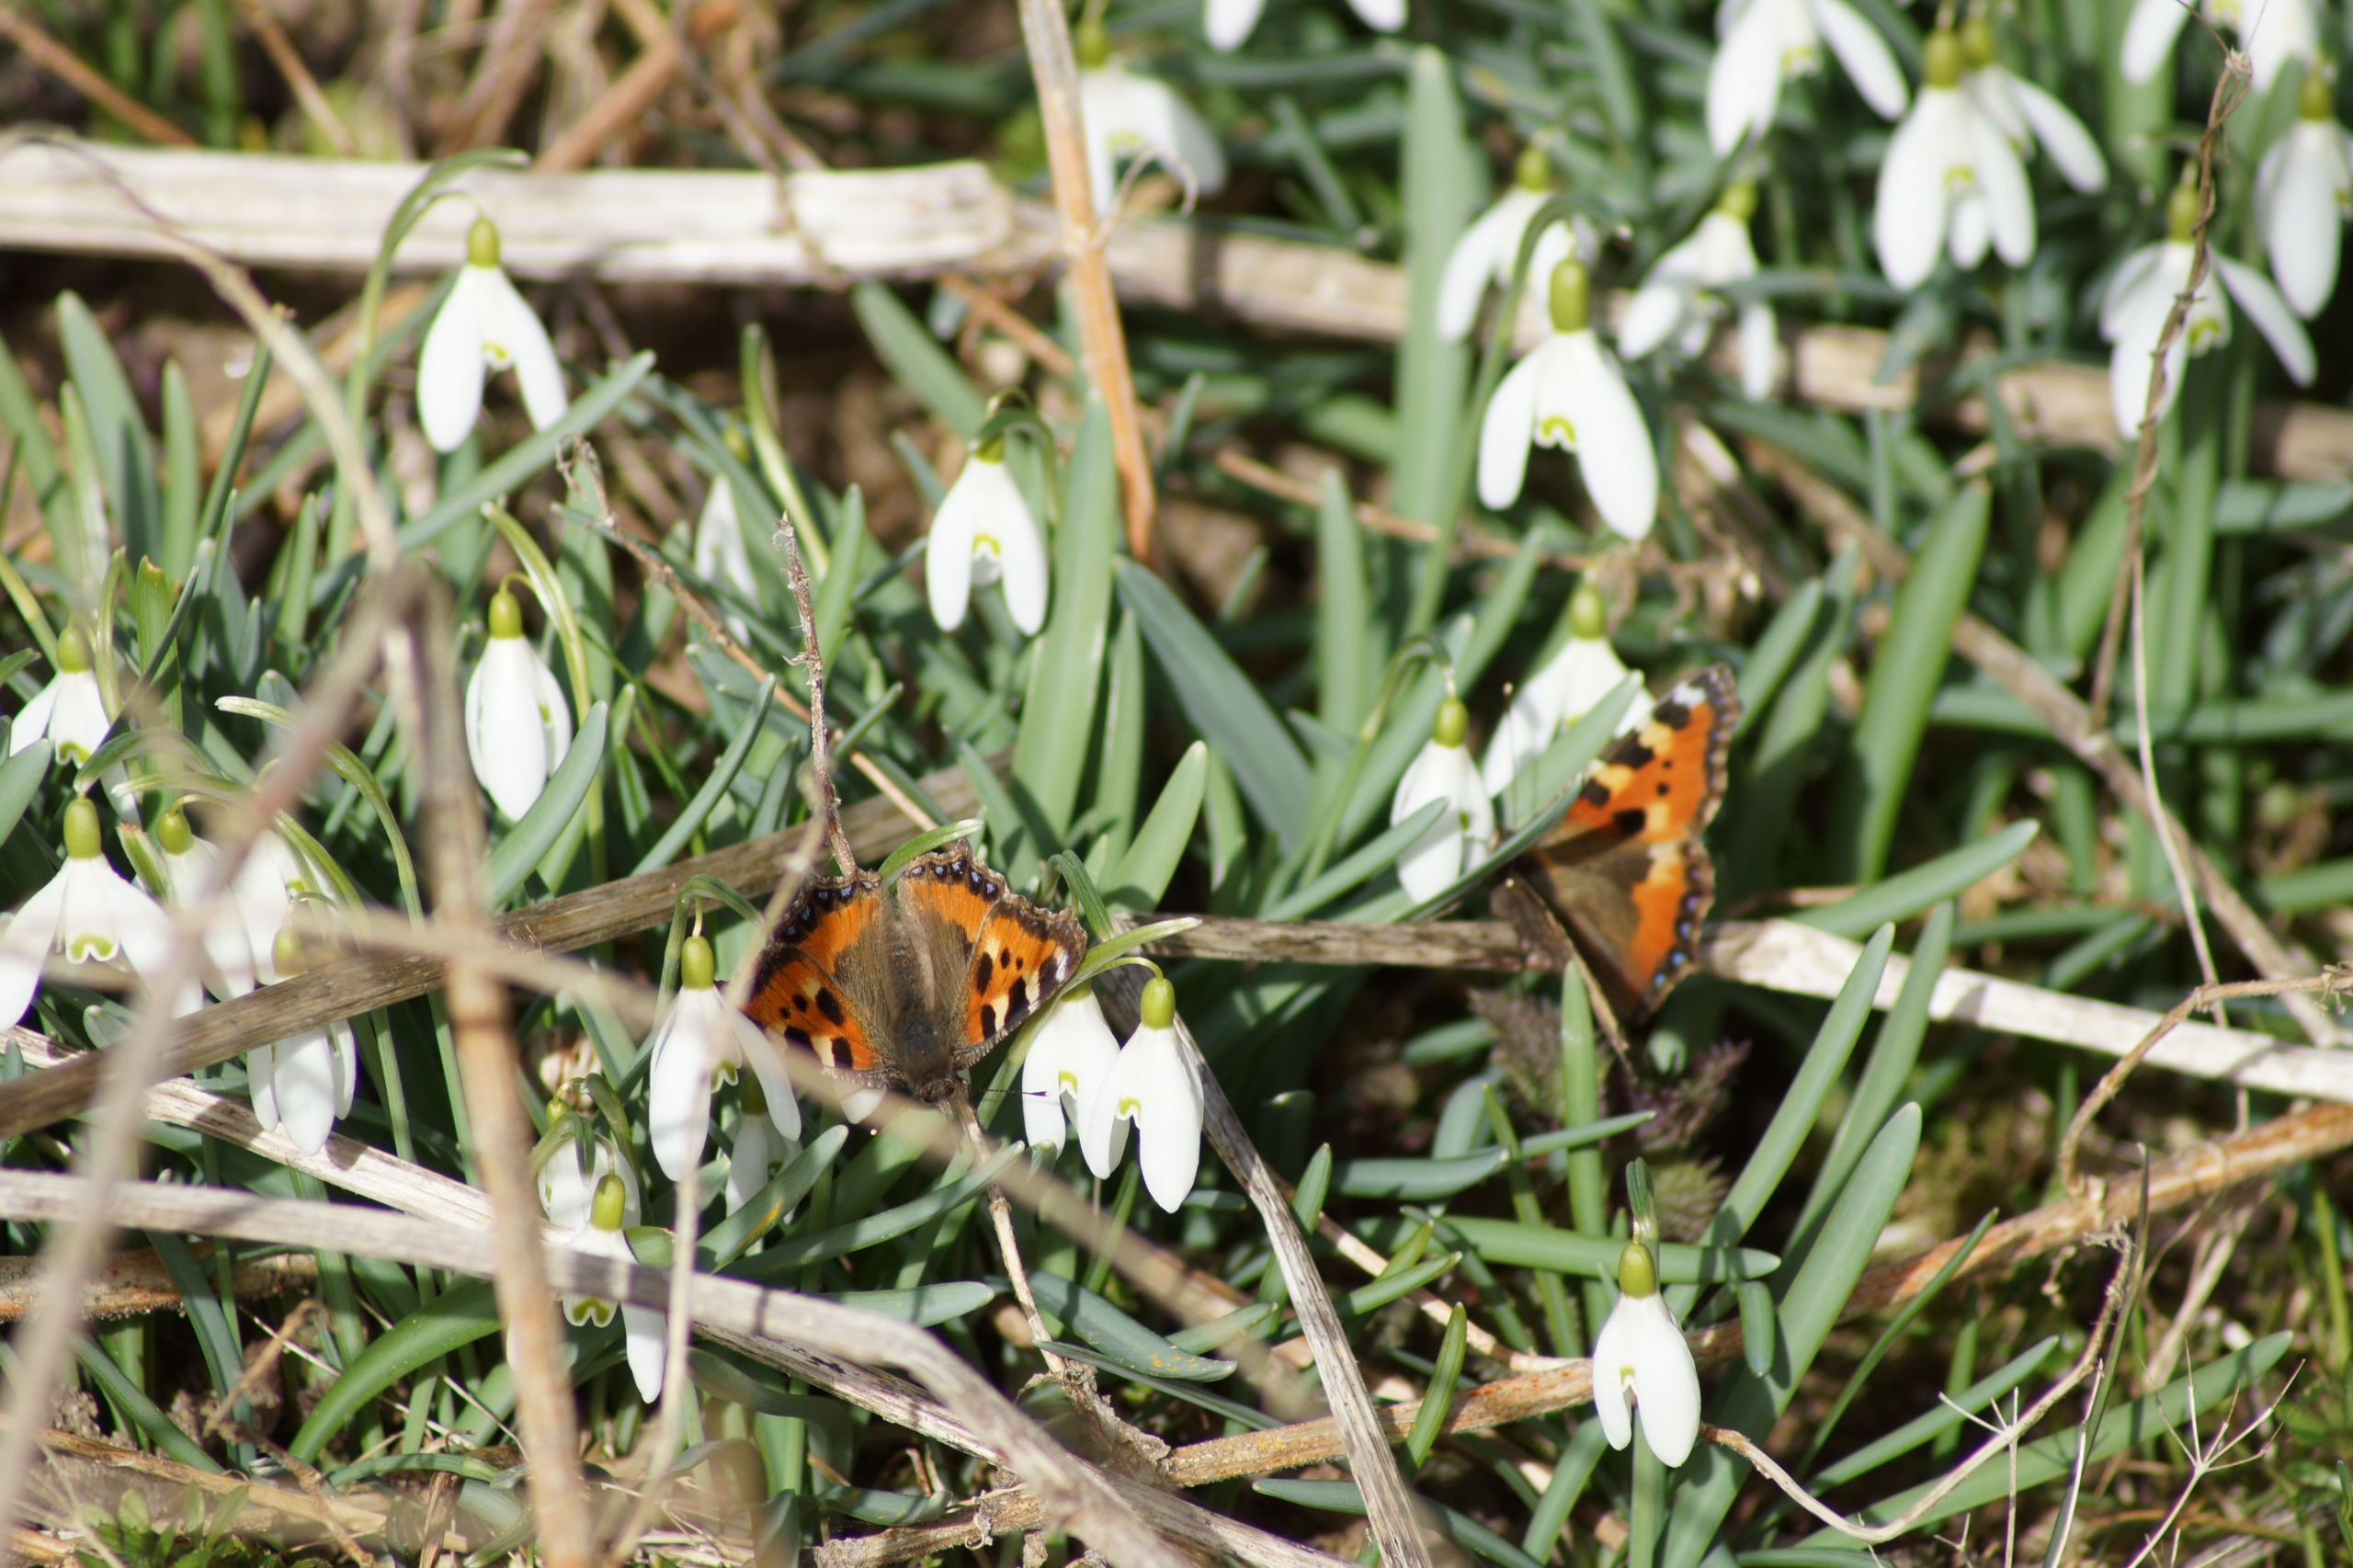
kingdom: Animalia
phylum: Arthropoda
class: Insecta
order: Lepidoptera
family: Nymphalidae
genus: Aglais
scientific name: Aglais urticae
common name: Nældens takvinge
